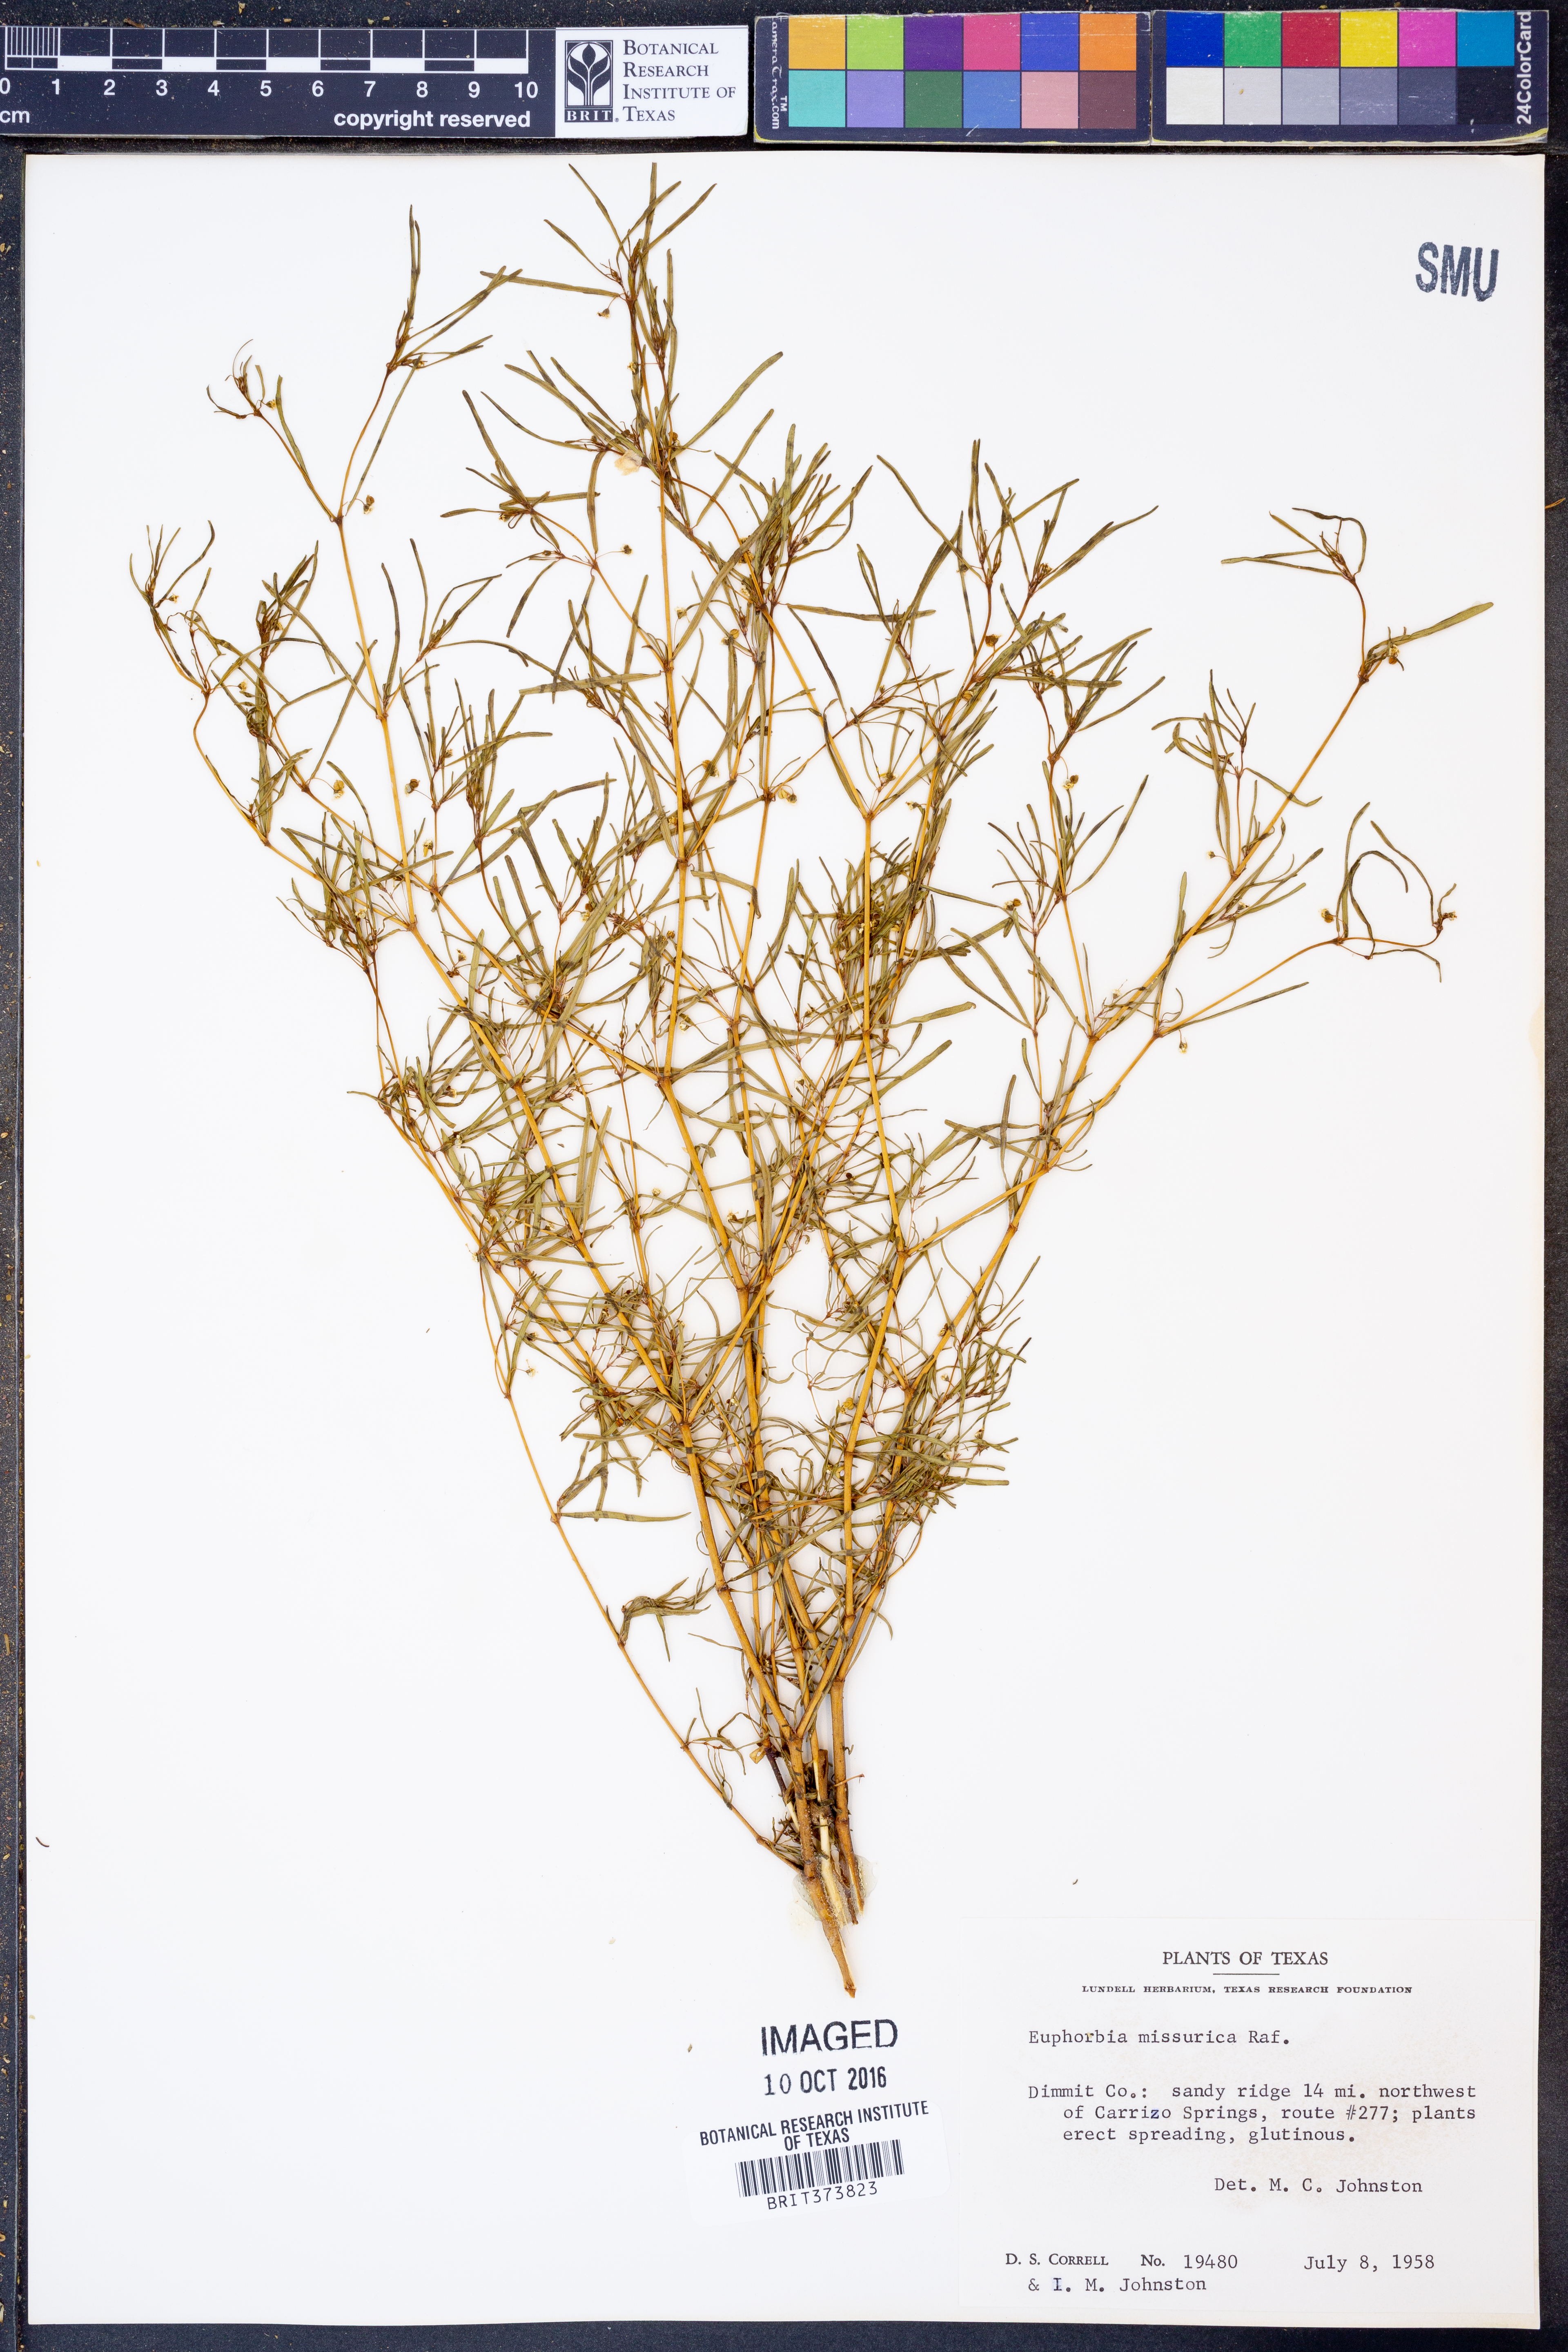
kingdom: Plantae
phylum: Tracheophyta
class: Magnoliopsida
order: Malpighiales
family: Euphorbiaceae
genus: Euphorbia
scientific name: Euphorbia missurica
